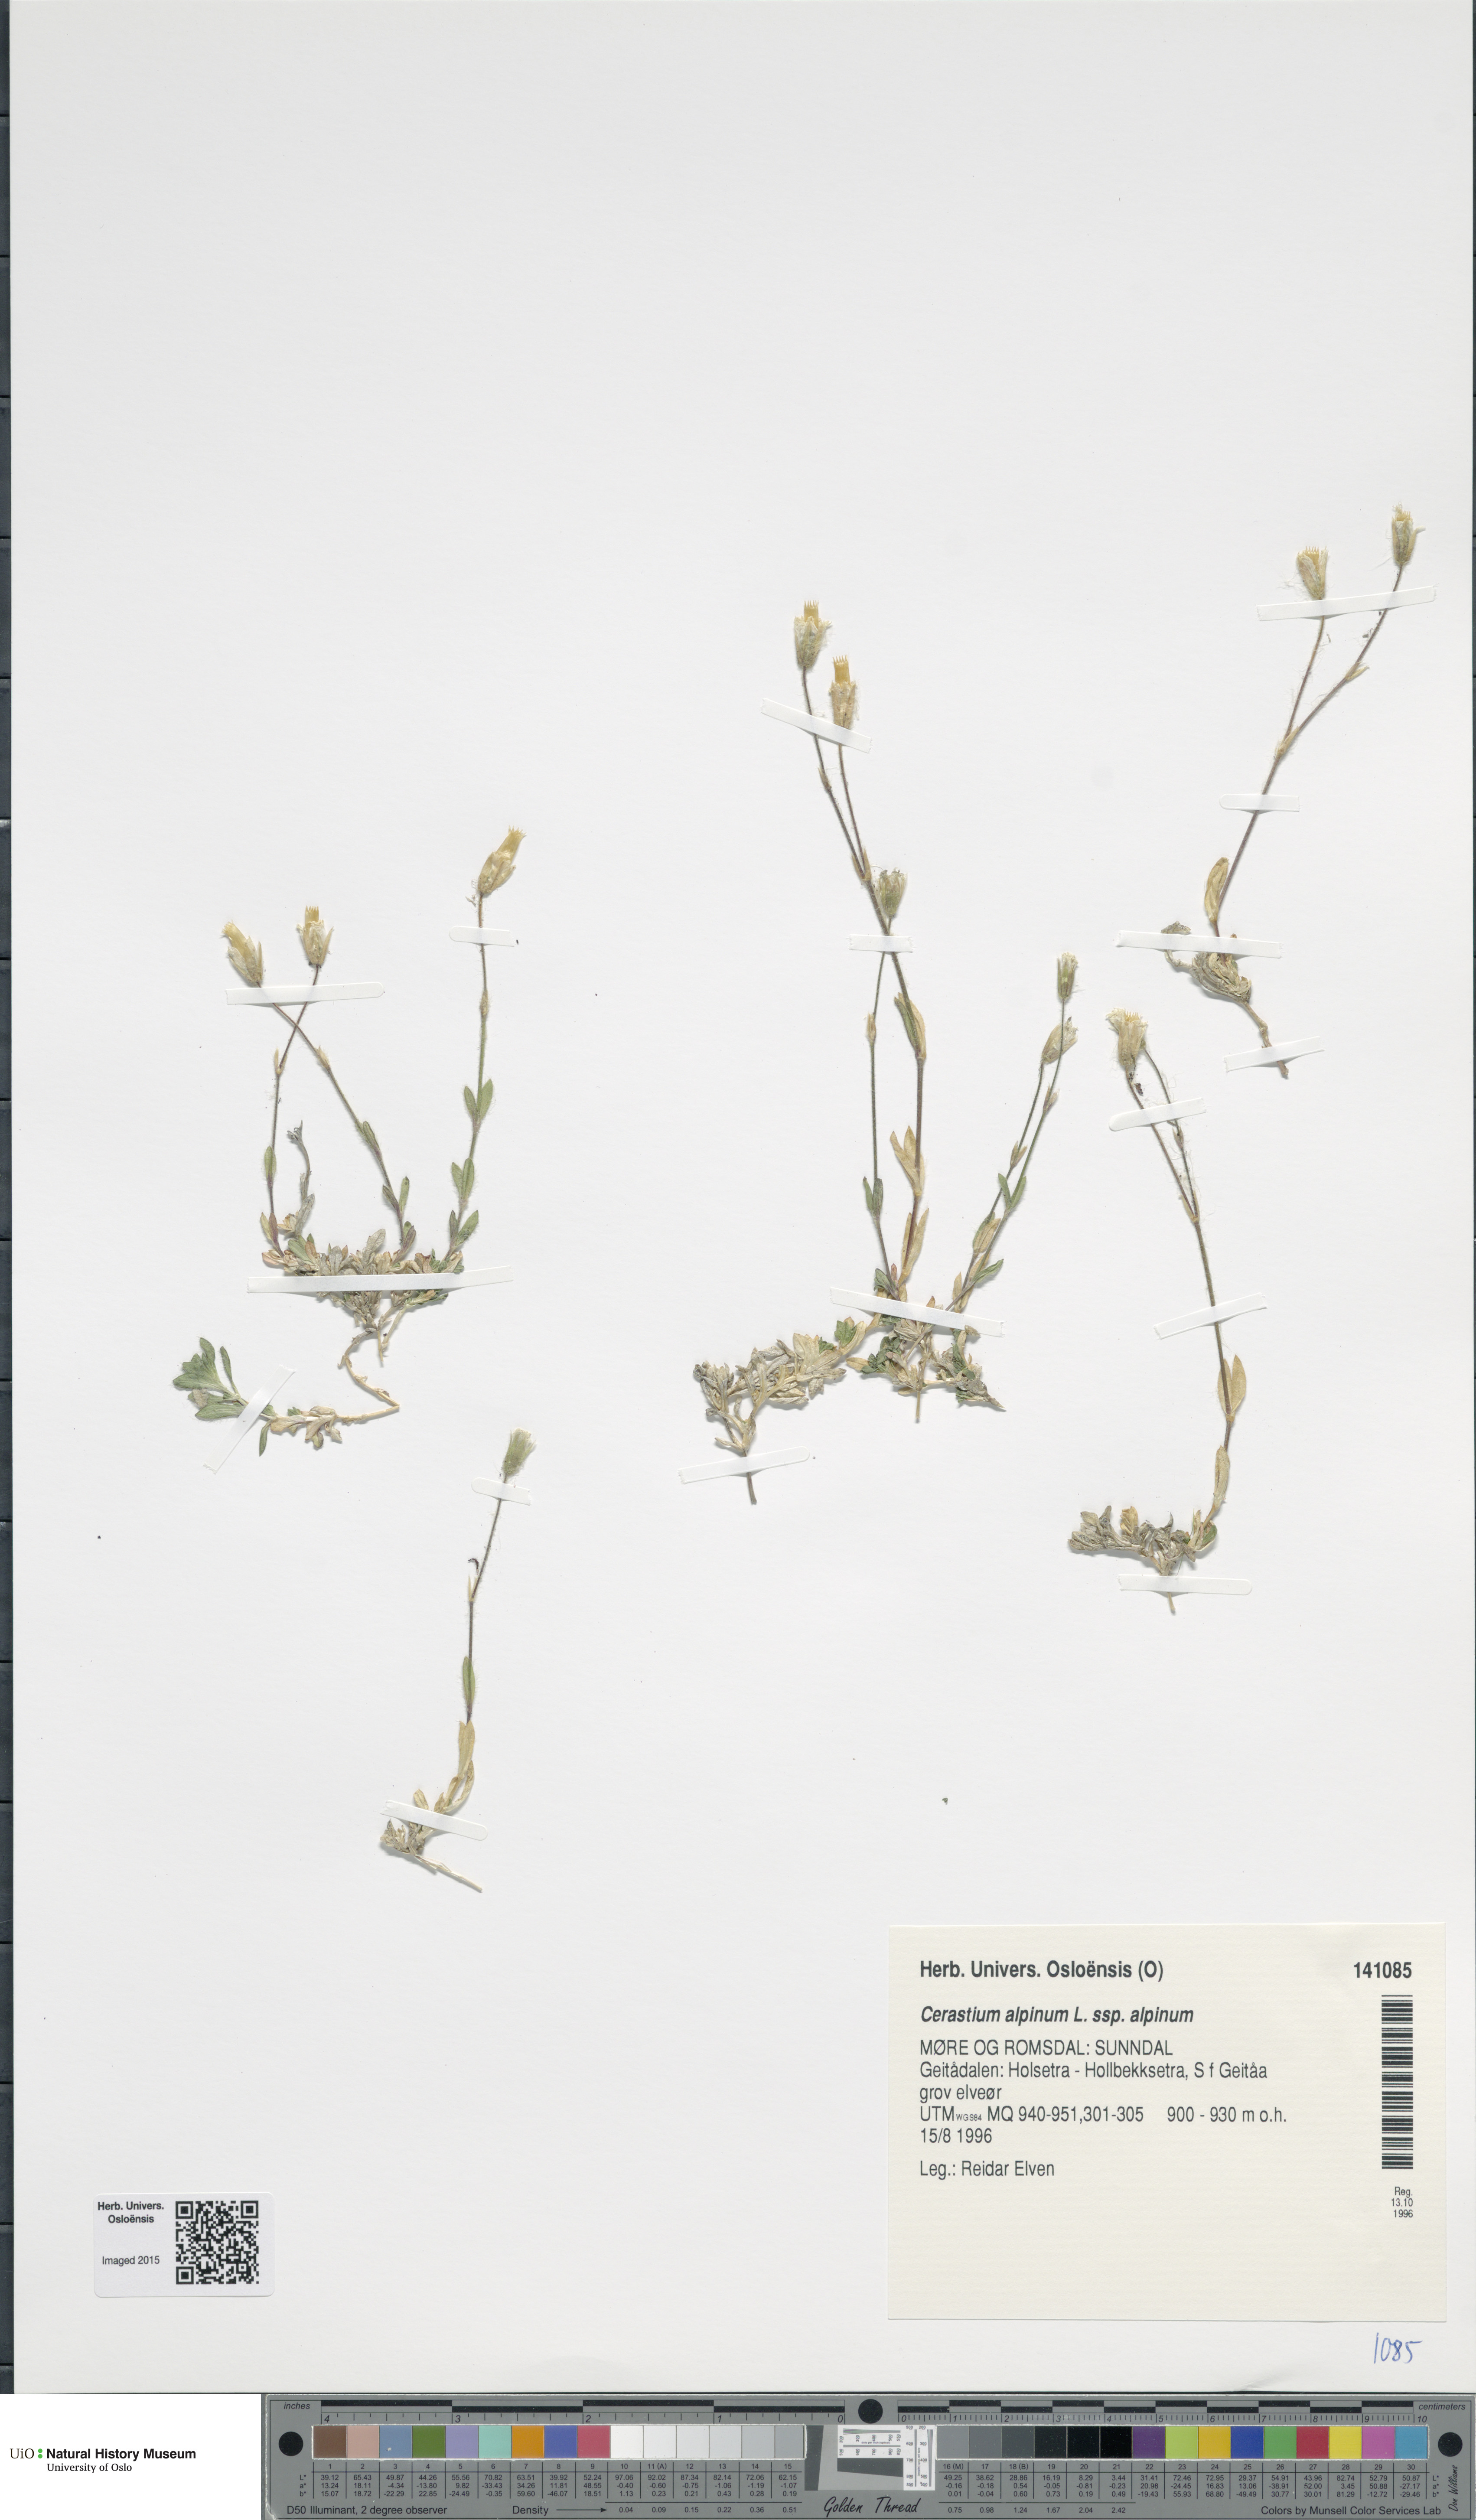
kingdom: Plantae
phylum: Tracheophyta
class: Magnoliopsida
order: Caryophyllales
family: Caryophyllaceae
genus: Cerastium
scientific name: Cerastium alpinum
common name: Alpine mouse-ear
